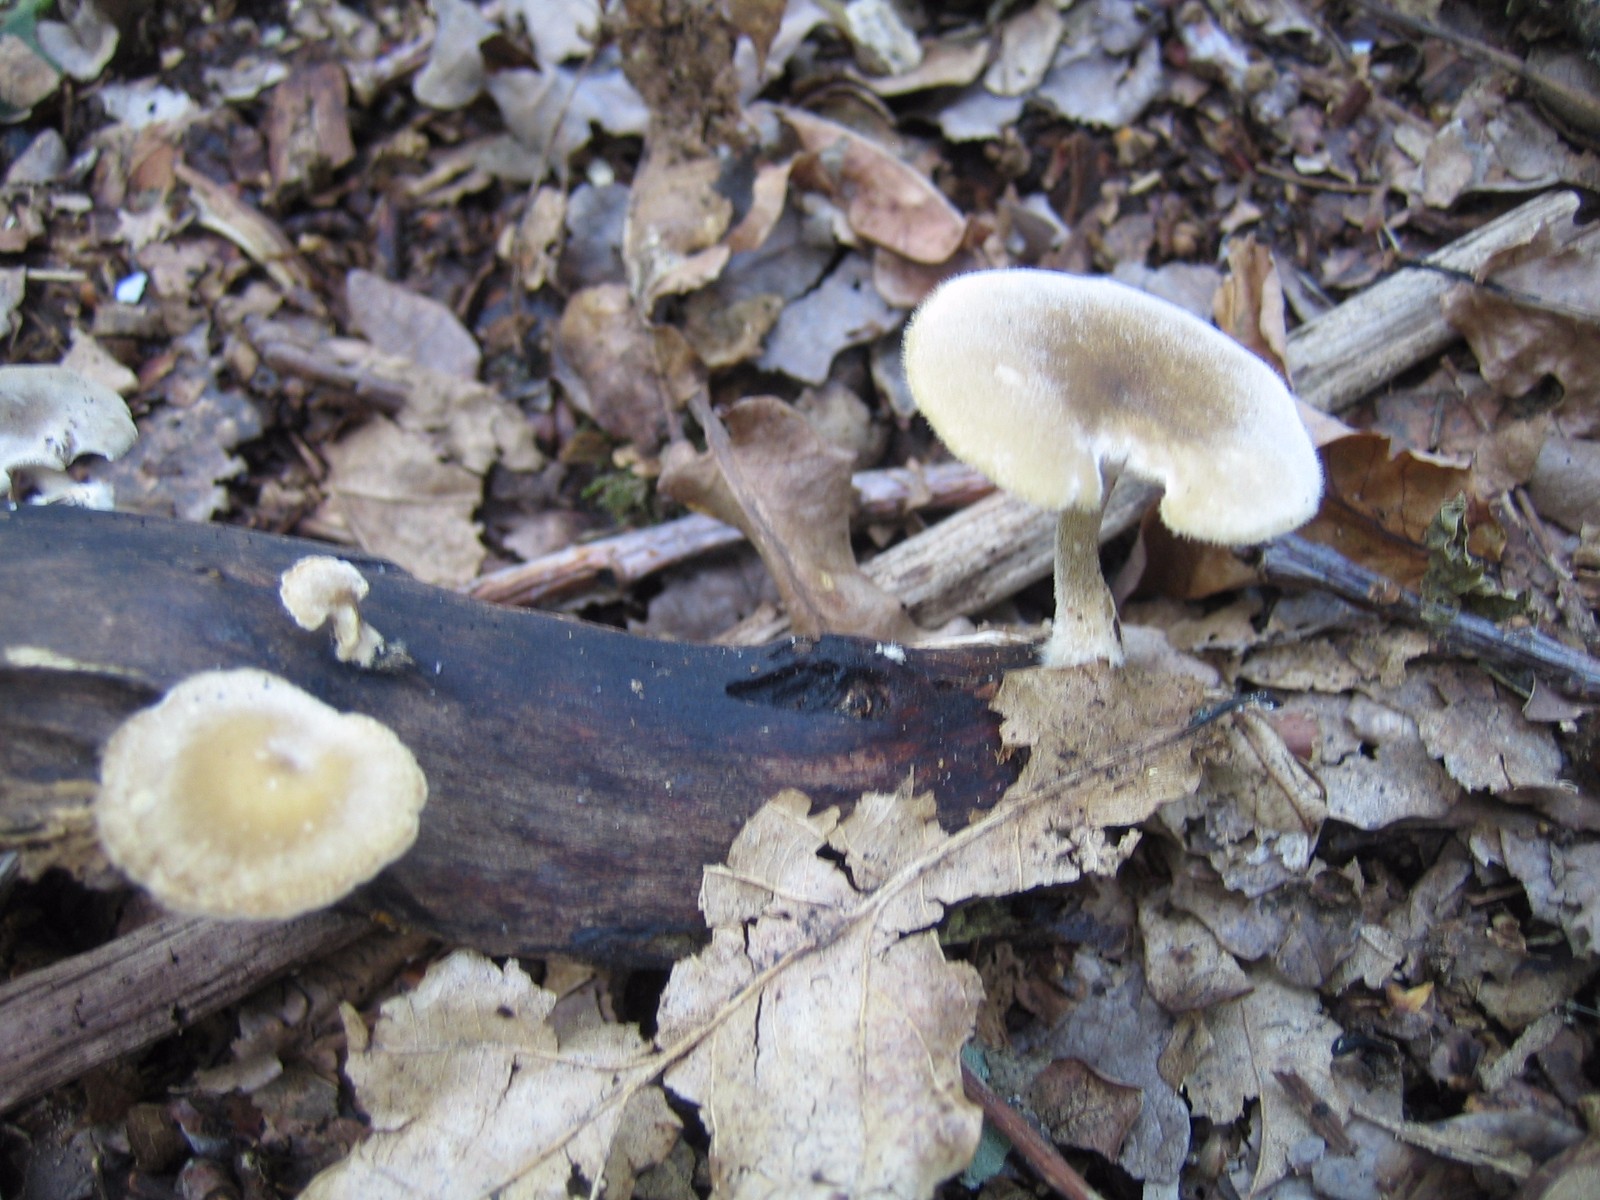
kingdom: Fungi
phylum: Basidiomycota
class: Agaricomycetes
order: Polyporales
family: Polyporaceae
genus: Lentinus
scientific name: Lentinus substrictus
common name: forårs-stilkporesvamp
